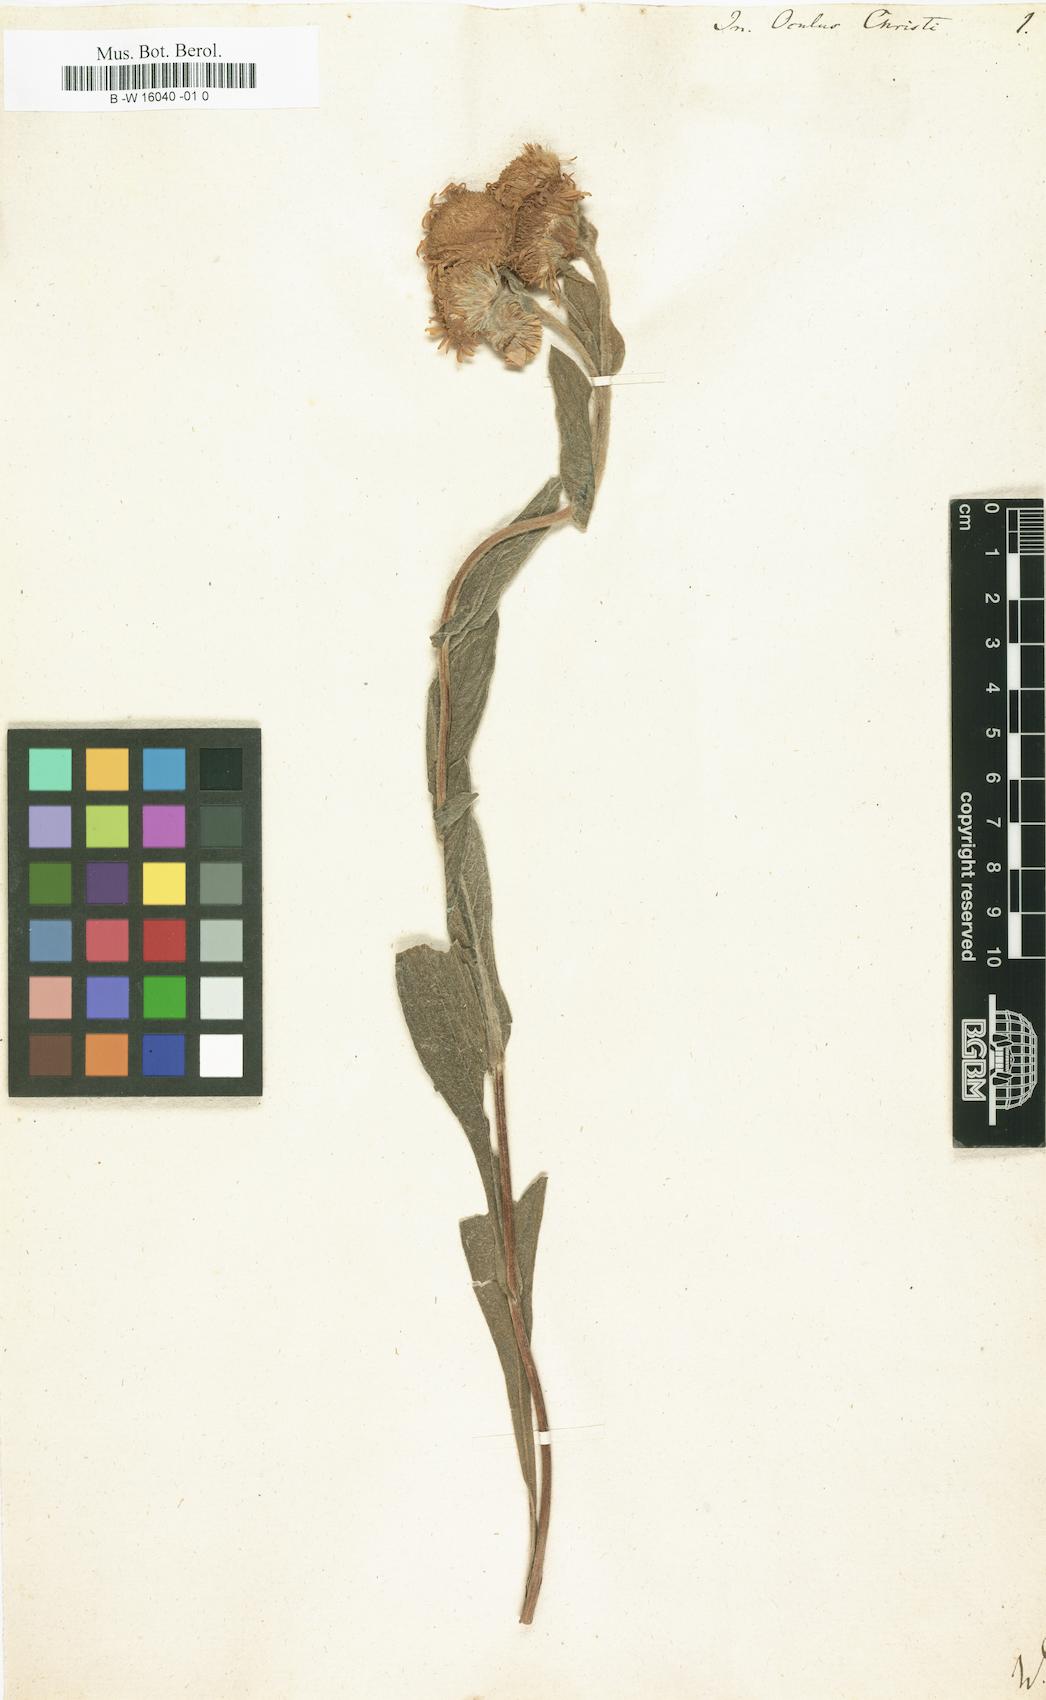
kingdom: Plantae
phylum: Tracheophyta
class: Magnoliopsida
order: Asterales
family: Asteraceae
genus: Inula
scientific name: Inula obtusifolia
